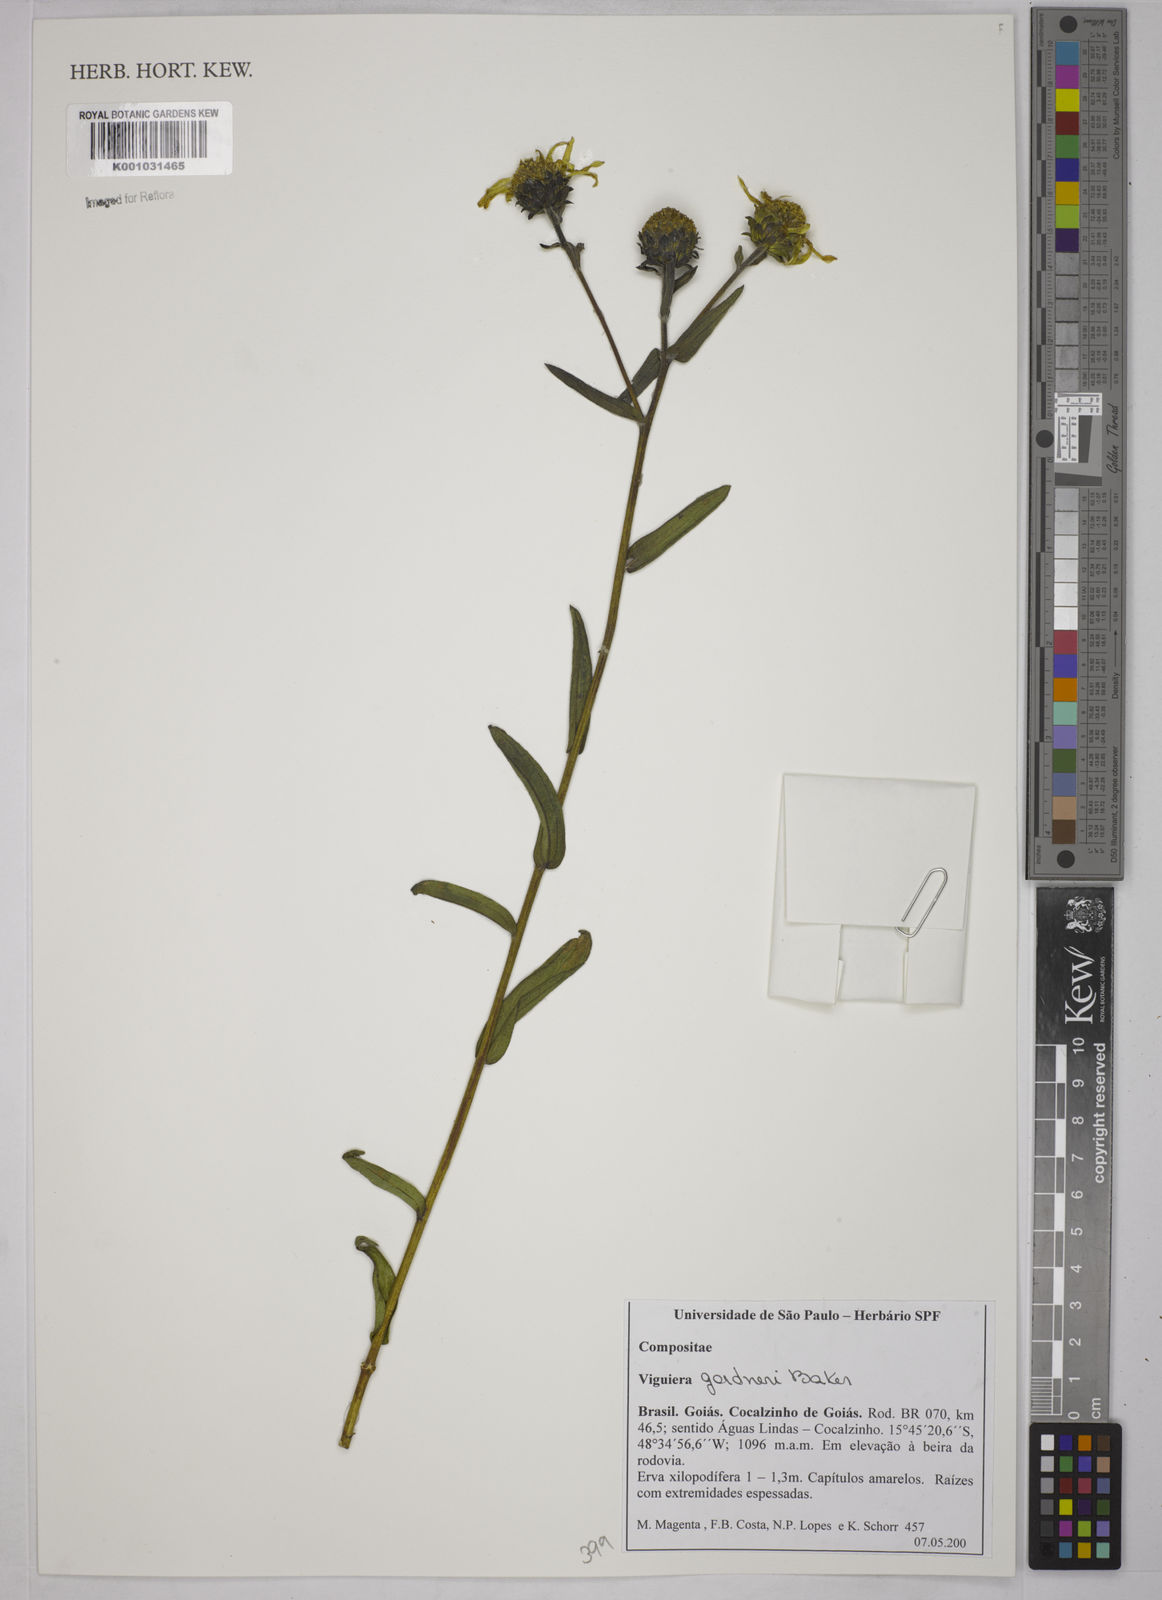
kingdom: Plantae
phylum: Tracheophyta
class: Magnoliopsida
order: Asterales
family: Asteraceae
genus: Aldama
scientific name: Aldama gardneri
